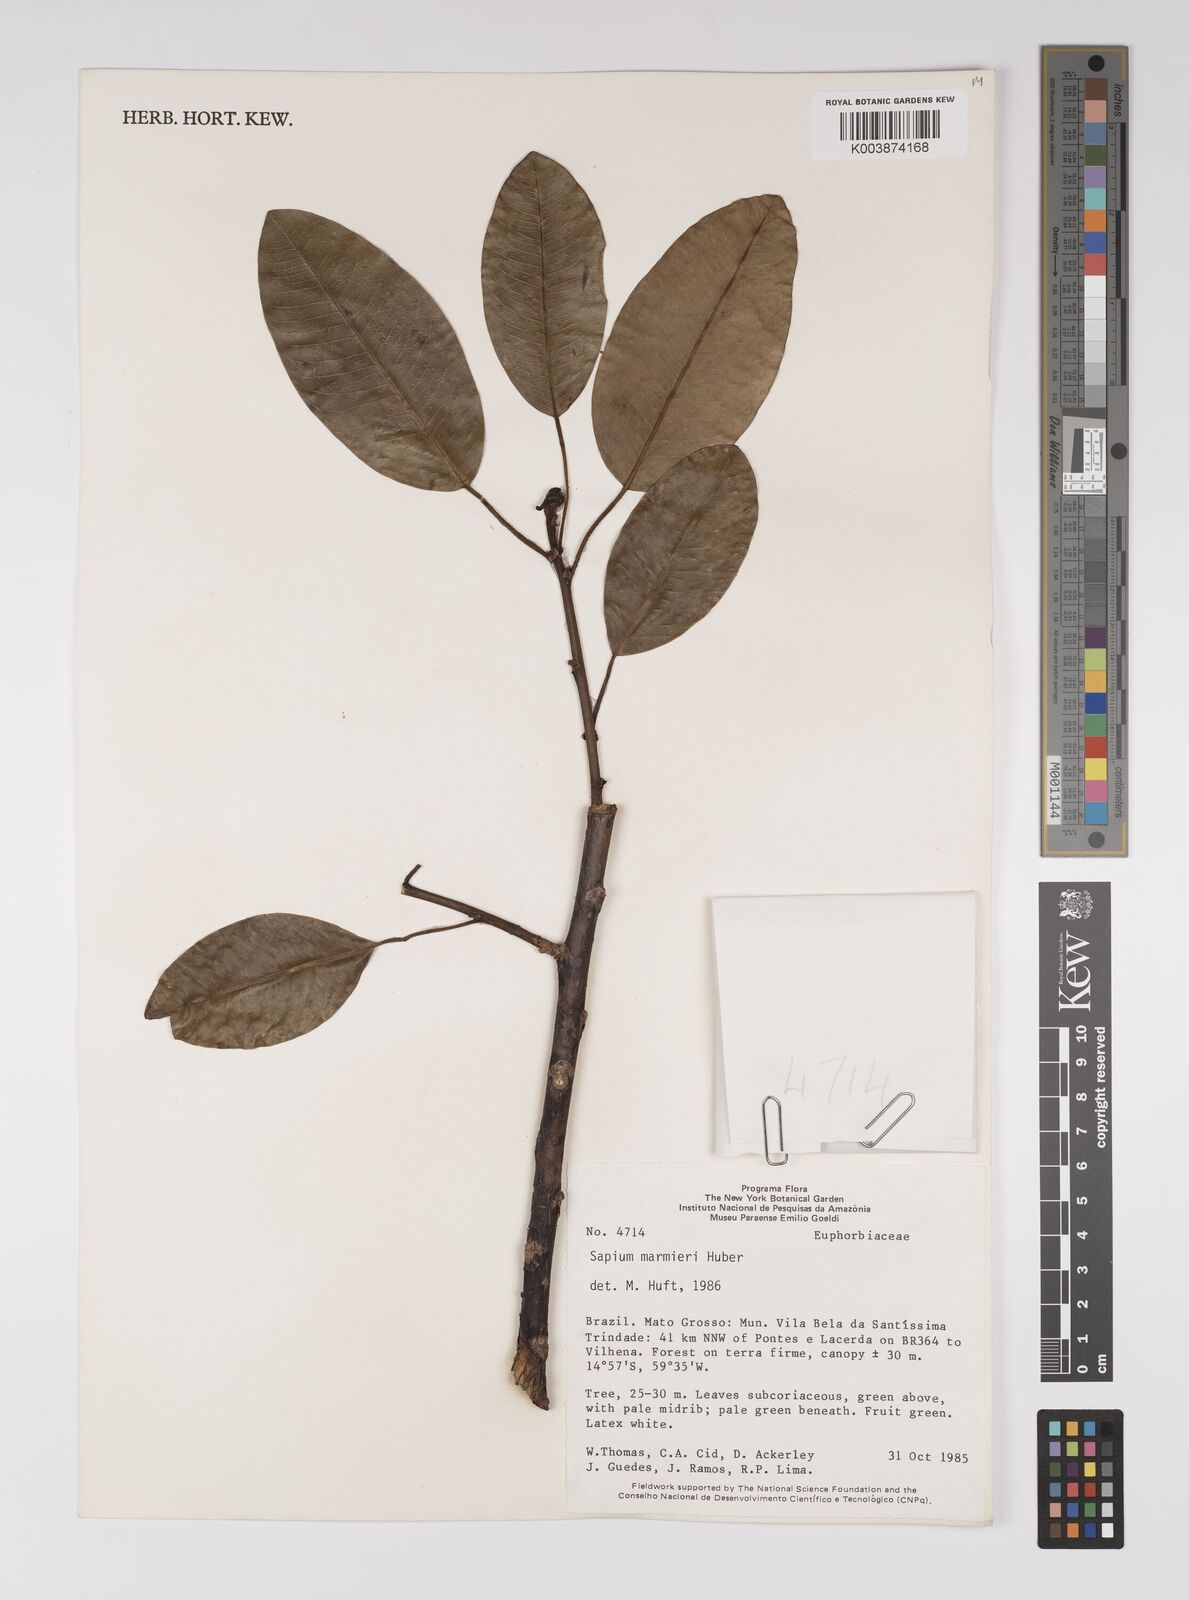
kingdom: Plantae
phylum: Tracheophyta
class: Magnoliopsida
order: Malpighiales
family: Euphorbiaceae
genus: Sapium
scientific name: Sapium marmieri
